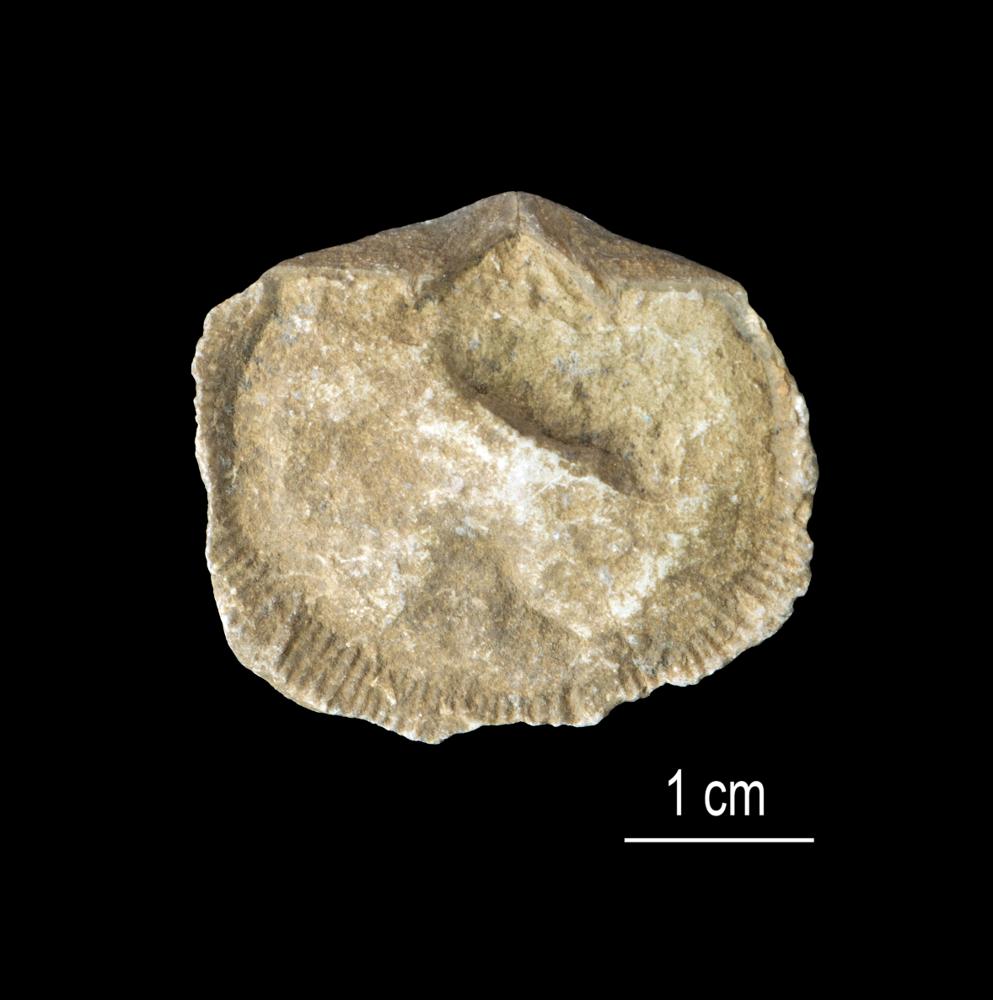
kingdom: Animalia
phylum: Brachiopoda
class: Rhynchonellata
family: Clitambonitidae
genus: Clitambonites
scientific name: Clitambonites squamatus
